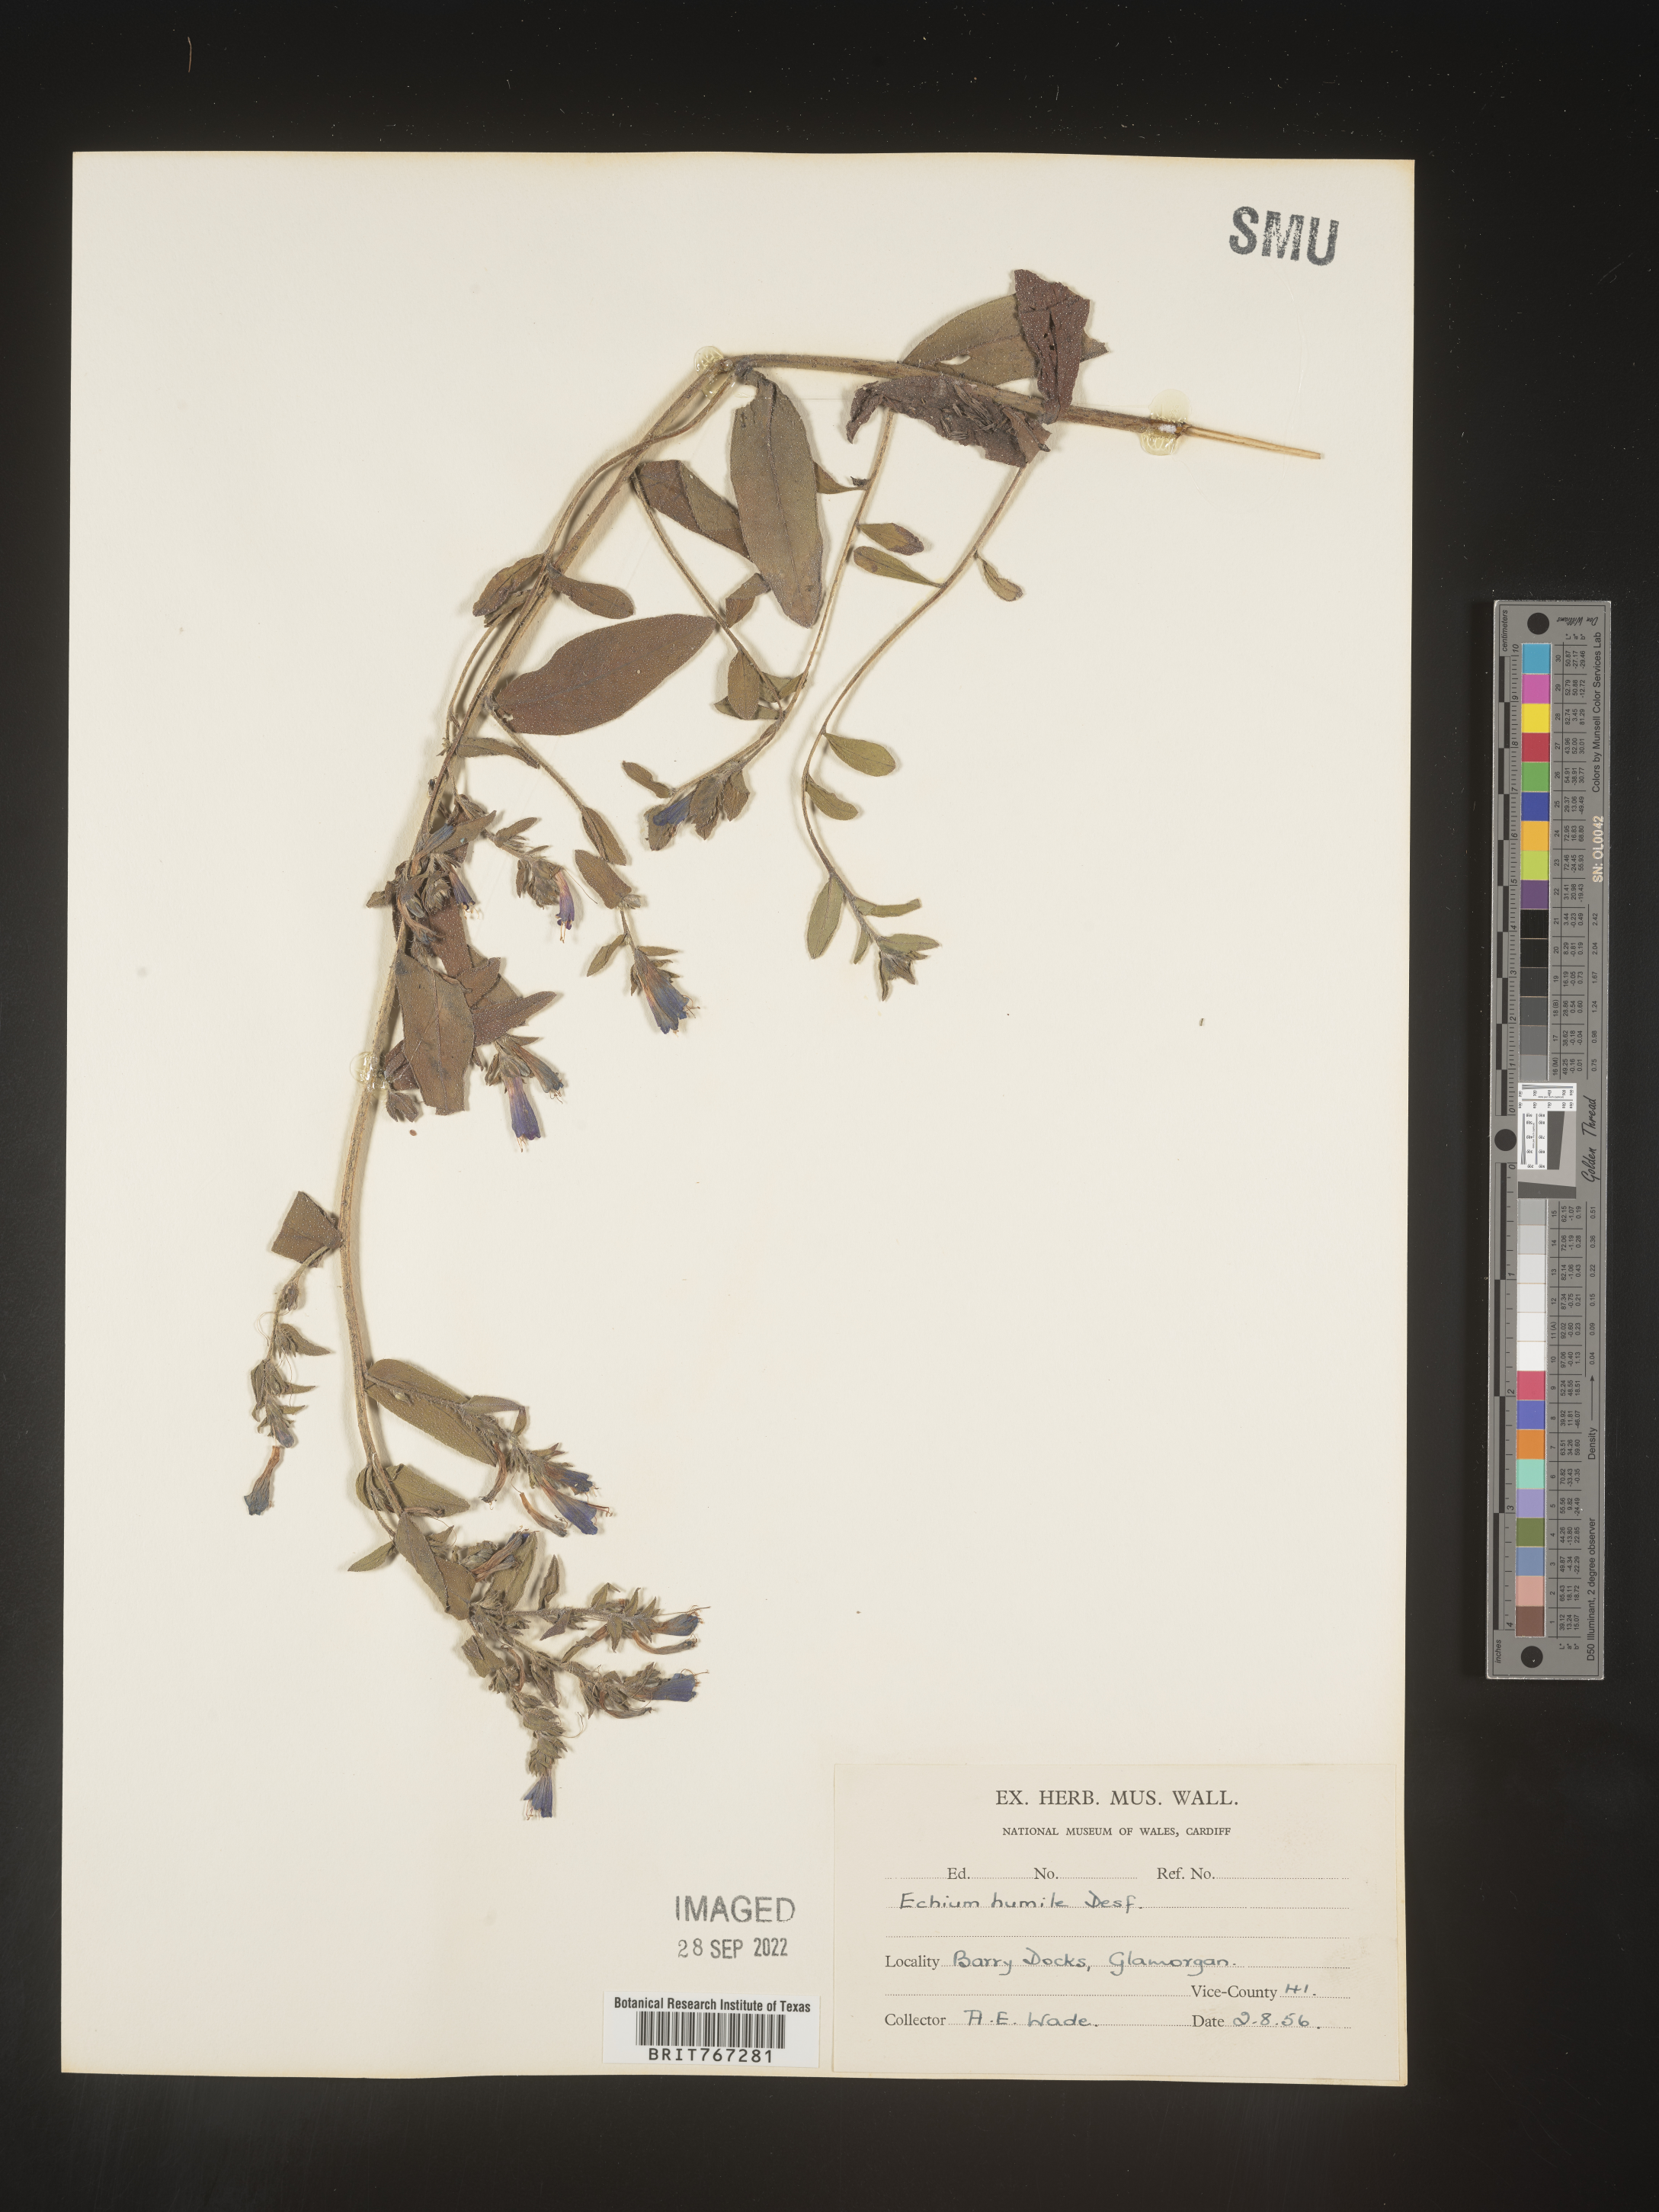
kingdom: Plantae
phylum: Tracheophyta
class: Magnoliopsida
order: Boraginales
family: Boraginaceae
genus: Echium
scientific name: Echium
